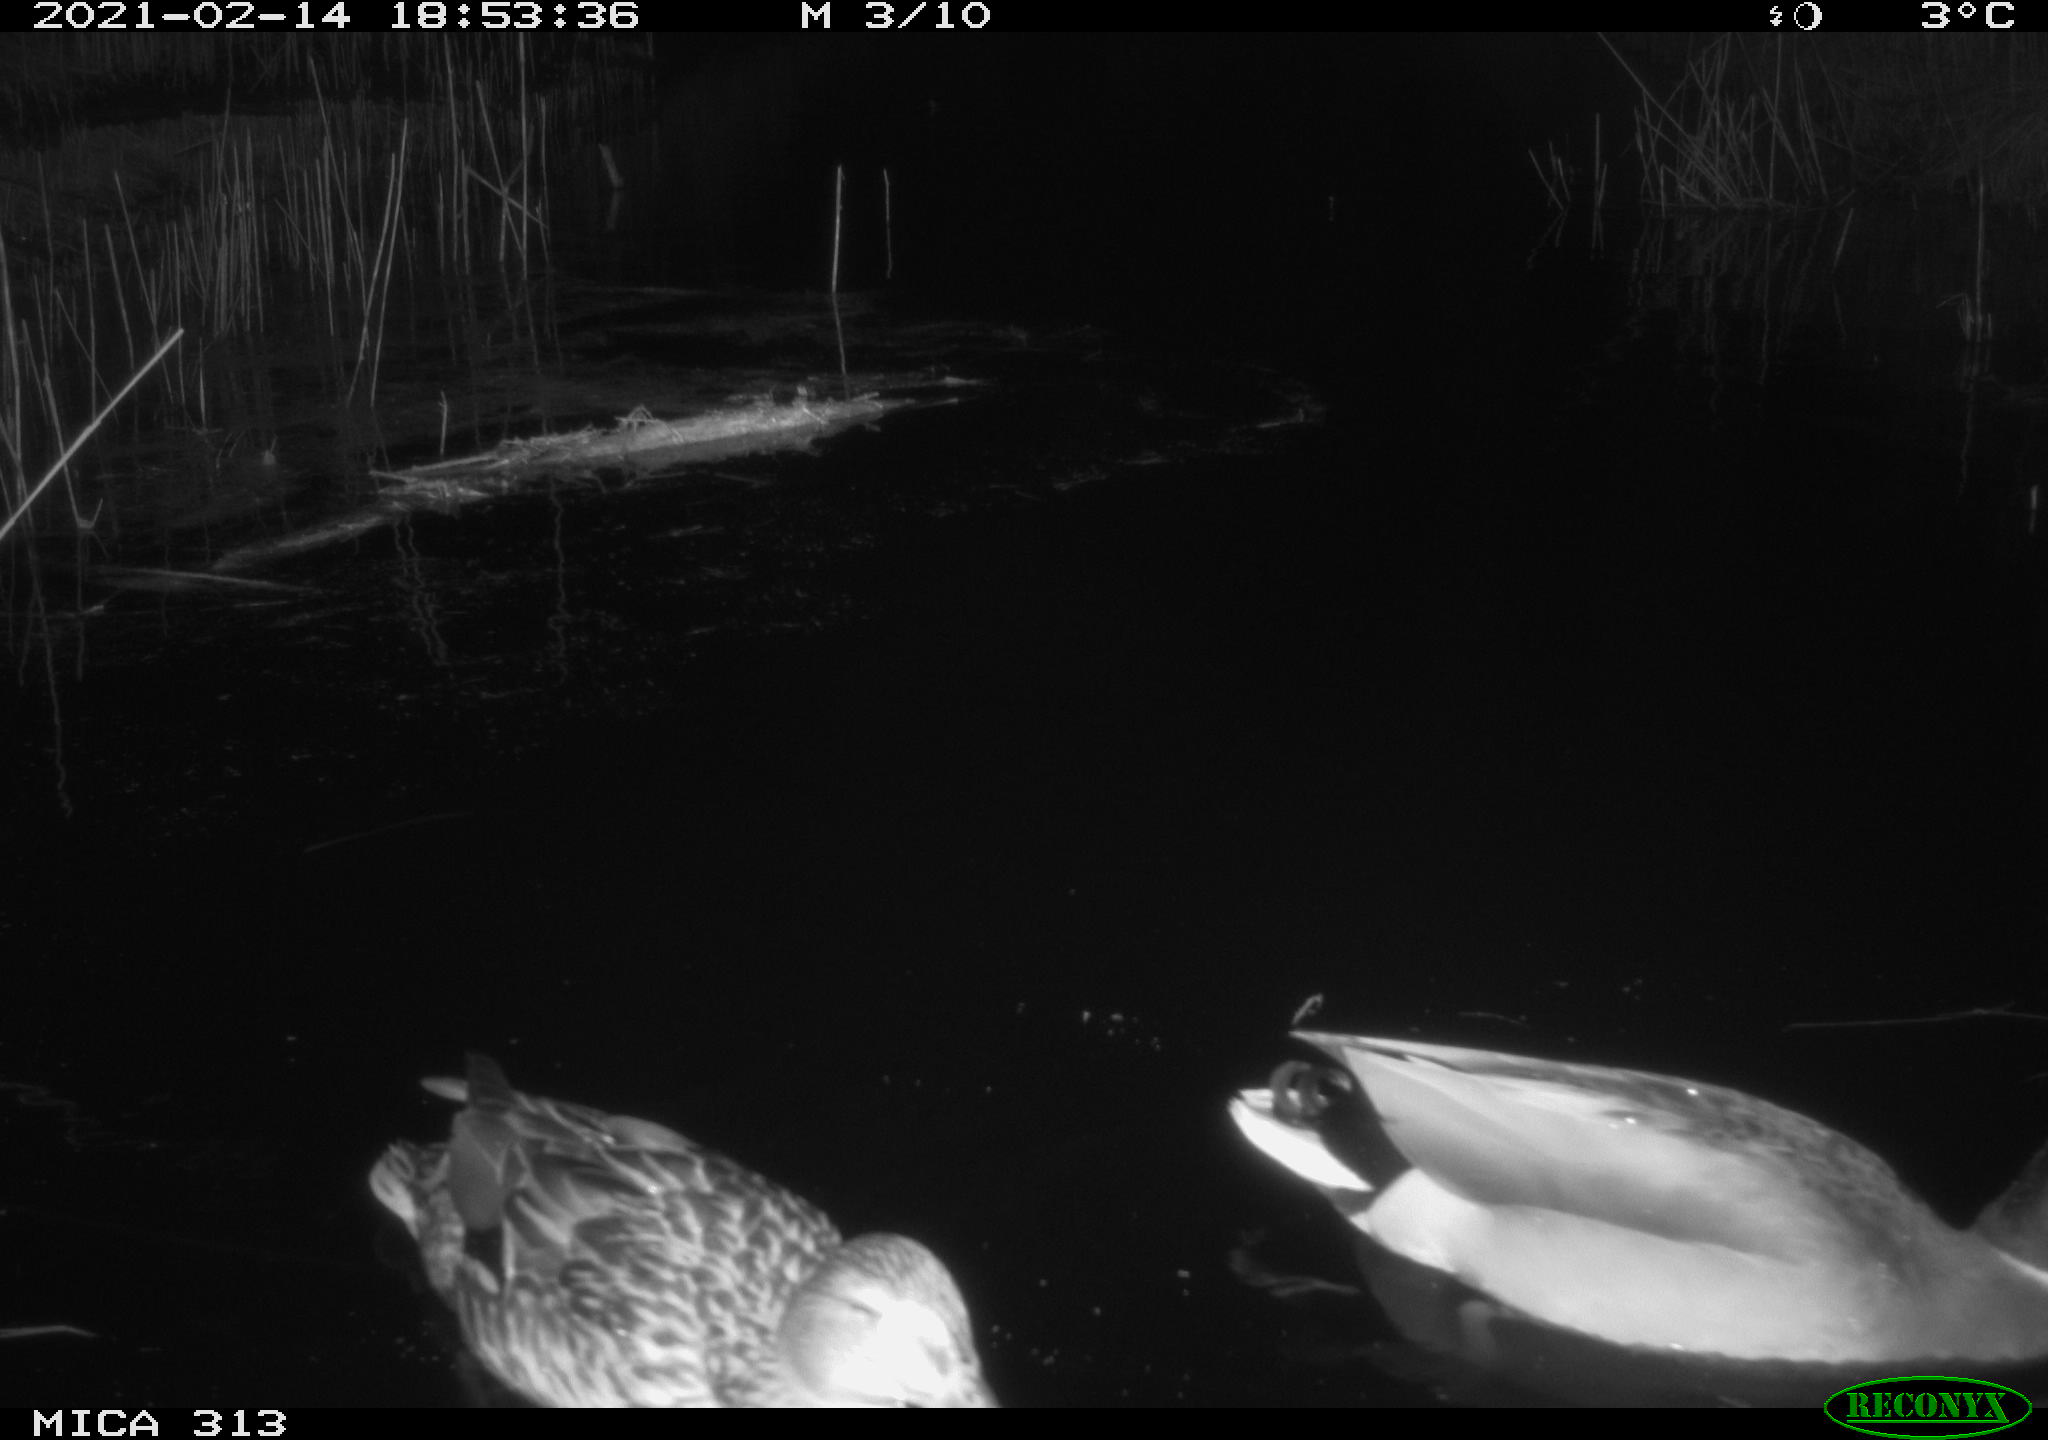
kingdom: Animalia
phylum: Chordata
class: Aves
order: Anseriformes
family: Anatidae
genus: Anas
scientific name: Anas
